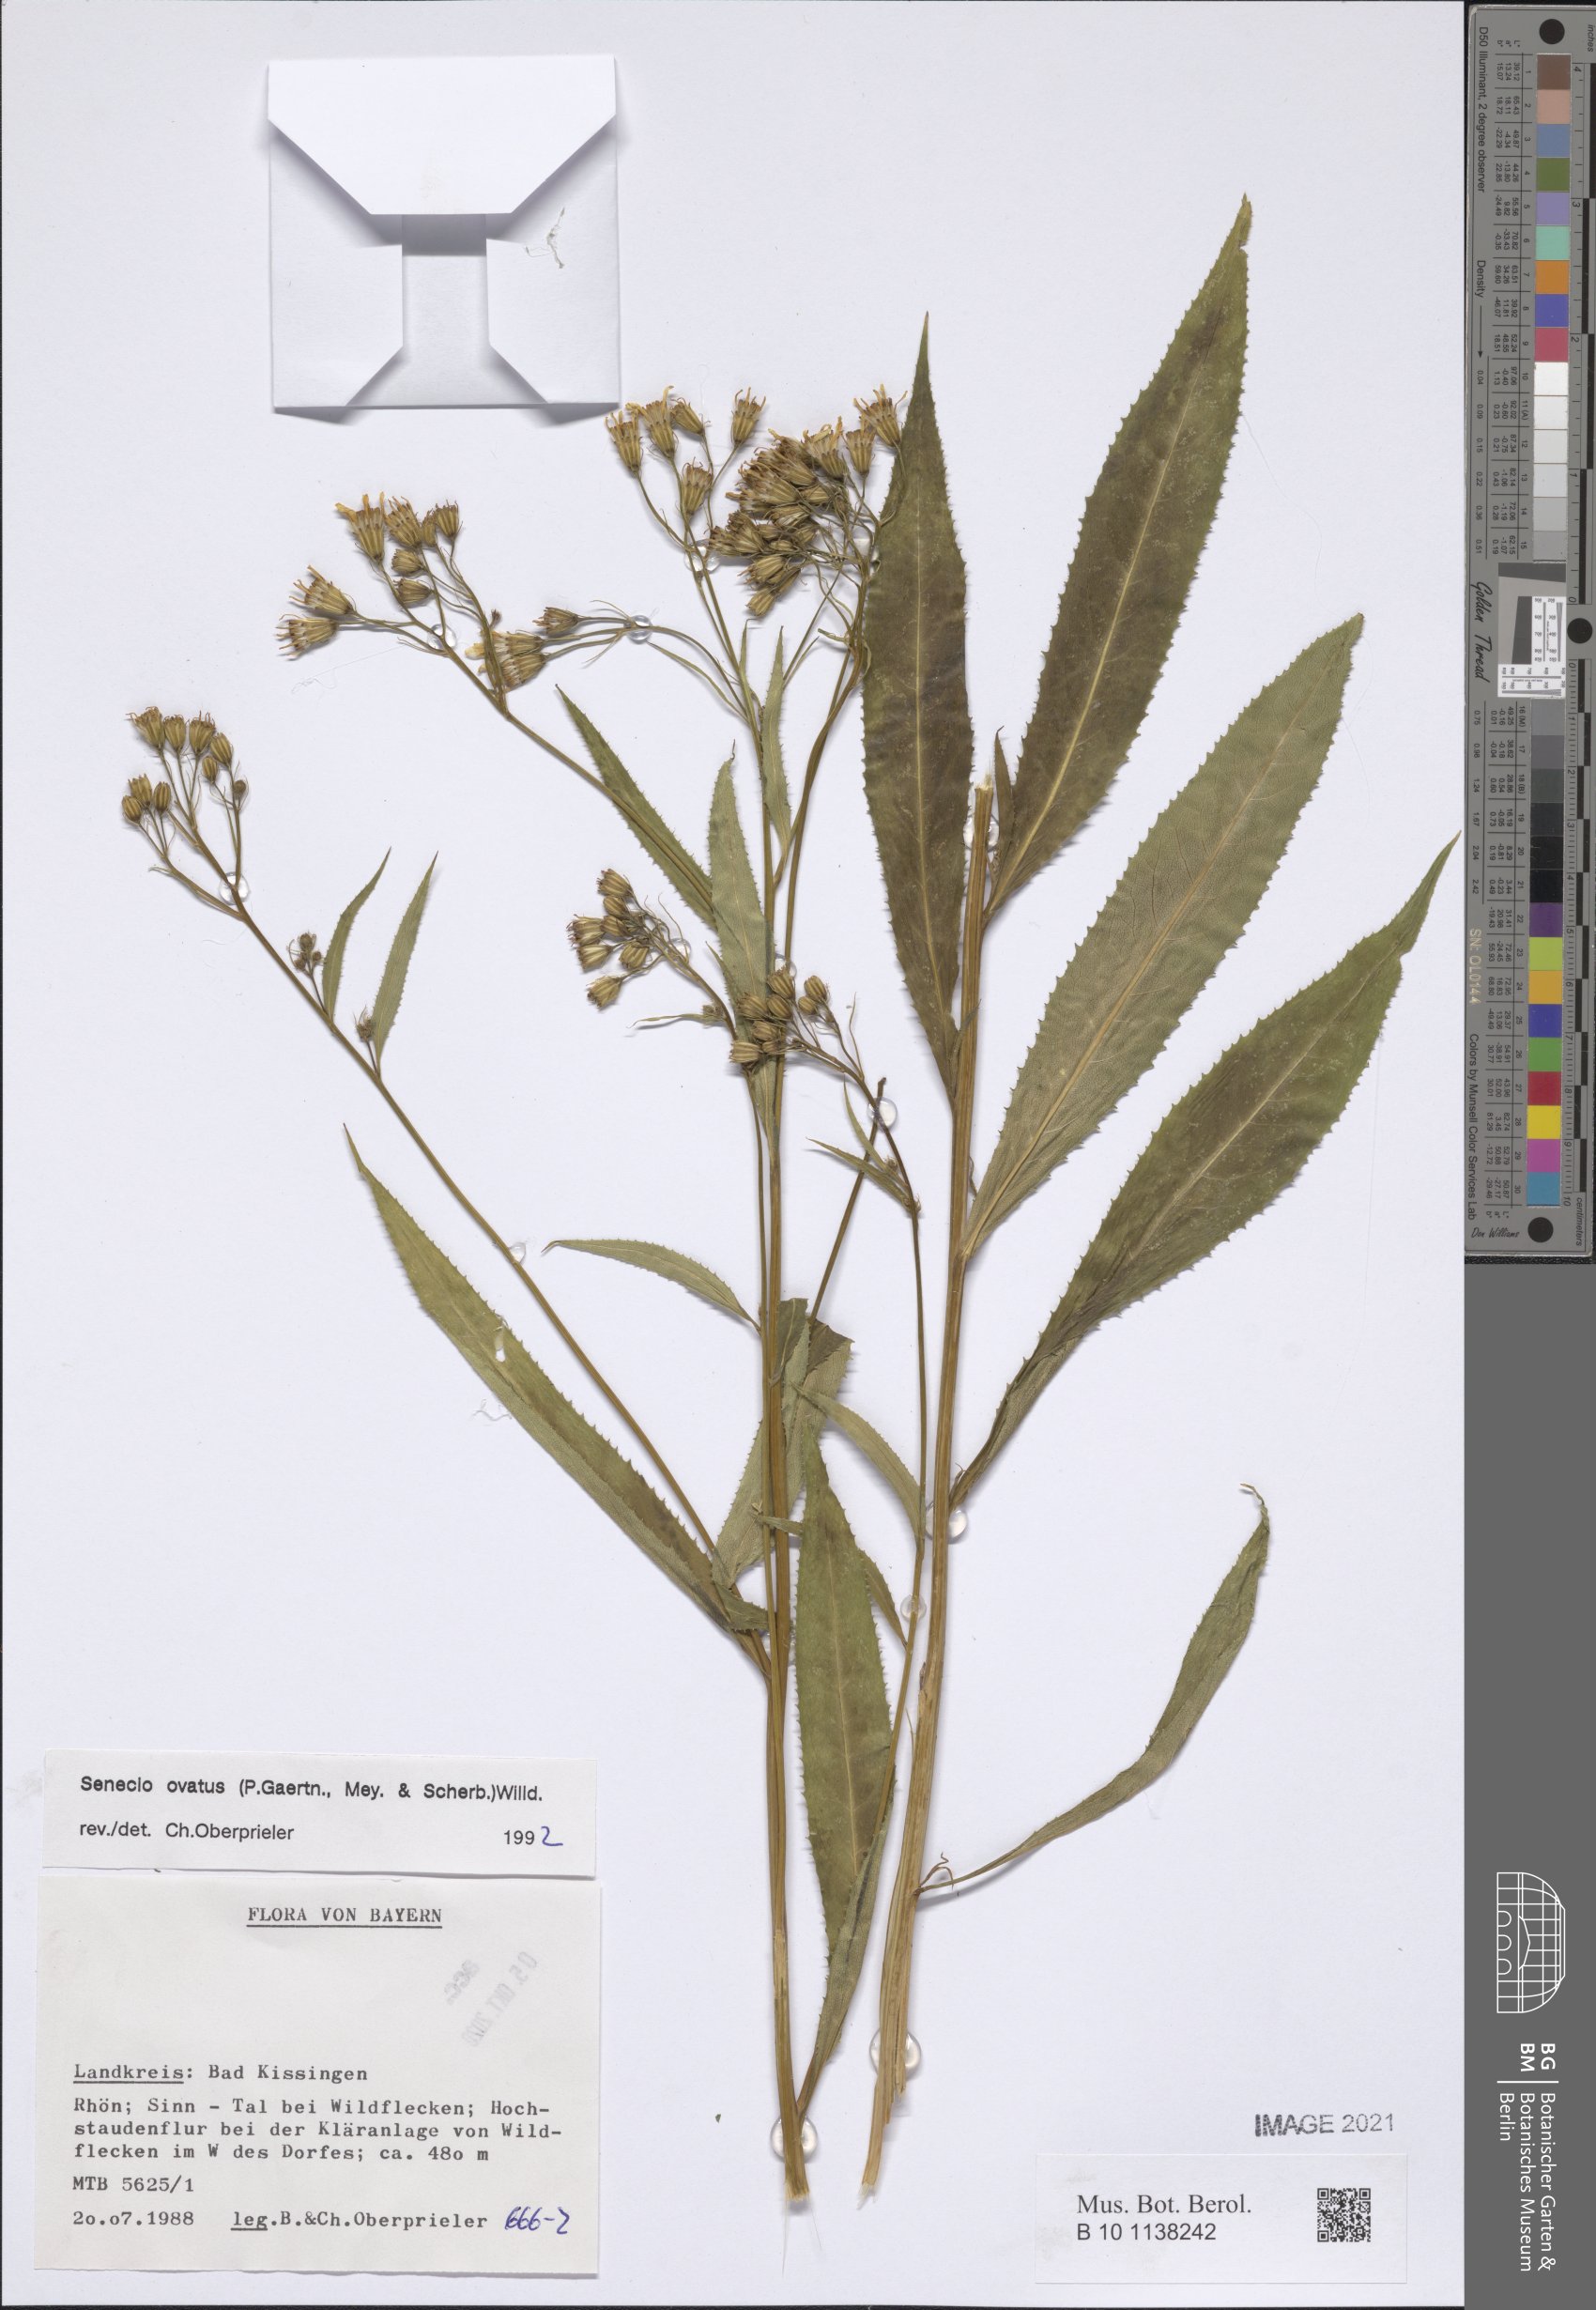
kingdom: Plantae
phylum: Tracheophyta
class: Magnoliopsida
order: Asterales
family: Asteraceae
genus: Senecio
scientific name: Senecio ovatus
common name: Wood ragwort
